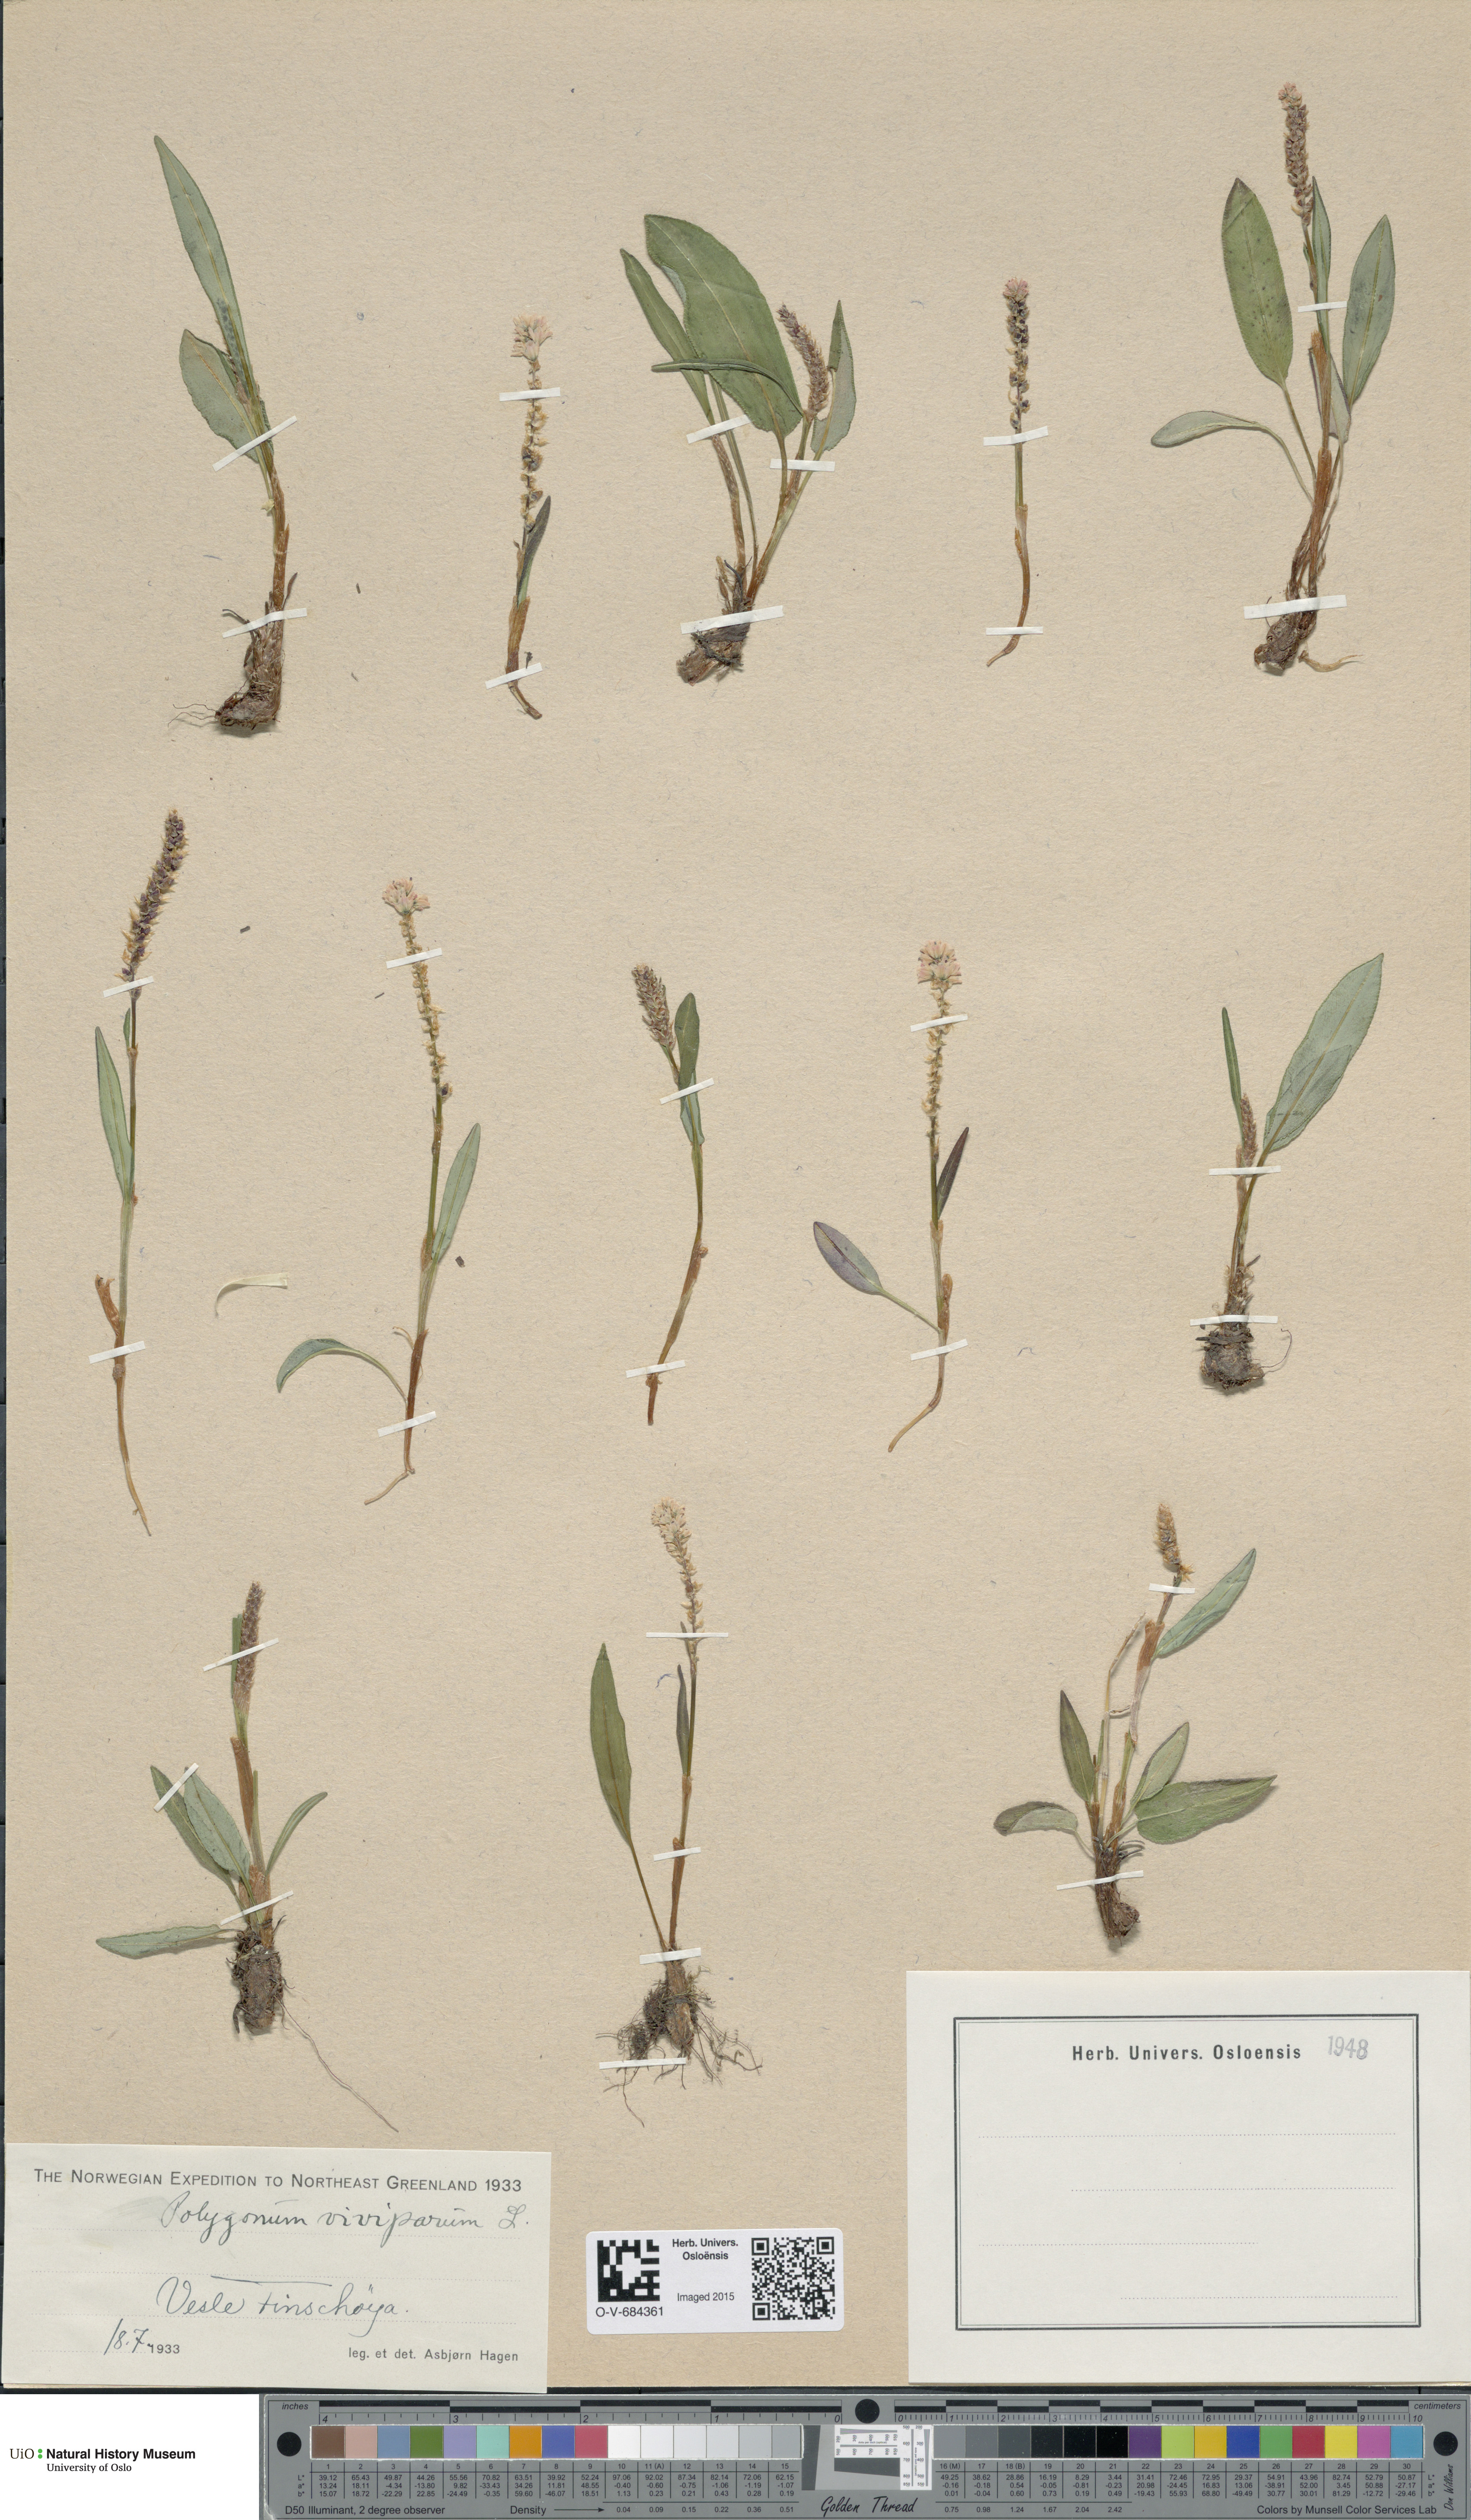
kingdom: Plantae
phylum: Tracheophyta
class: Magnoliopsida
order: Caryophyllales
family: Polygonaceae
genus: Bistorta
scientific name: Bistorta vivipara
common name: Alpine bistort
